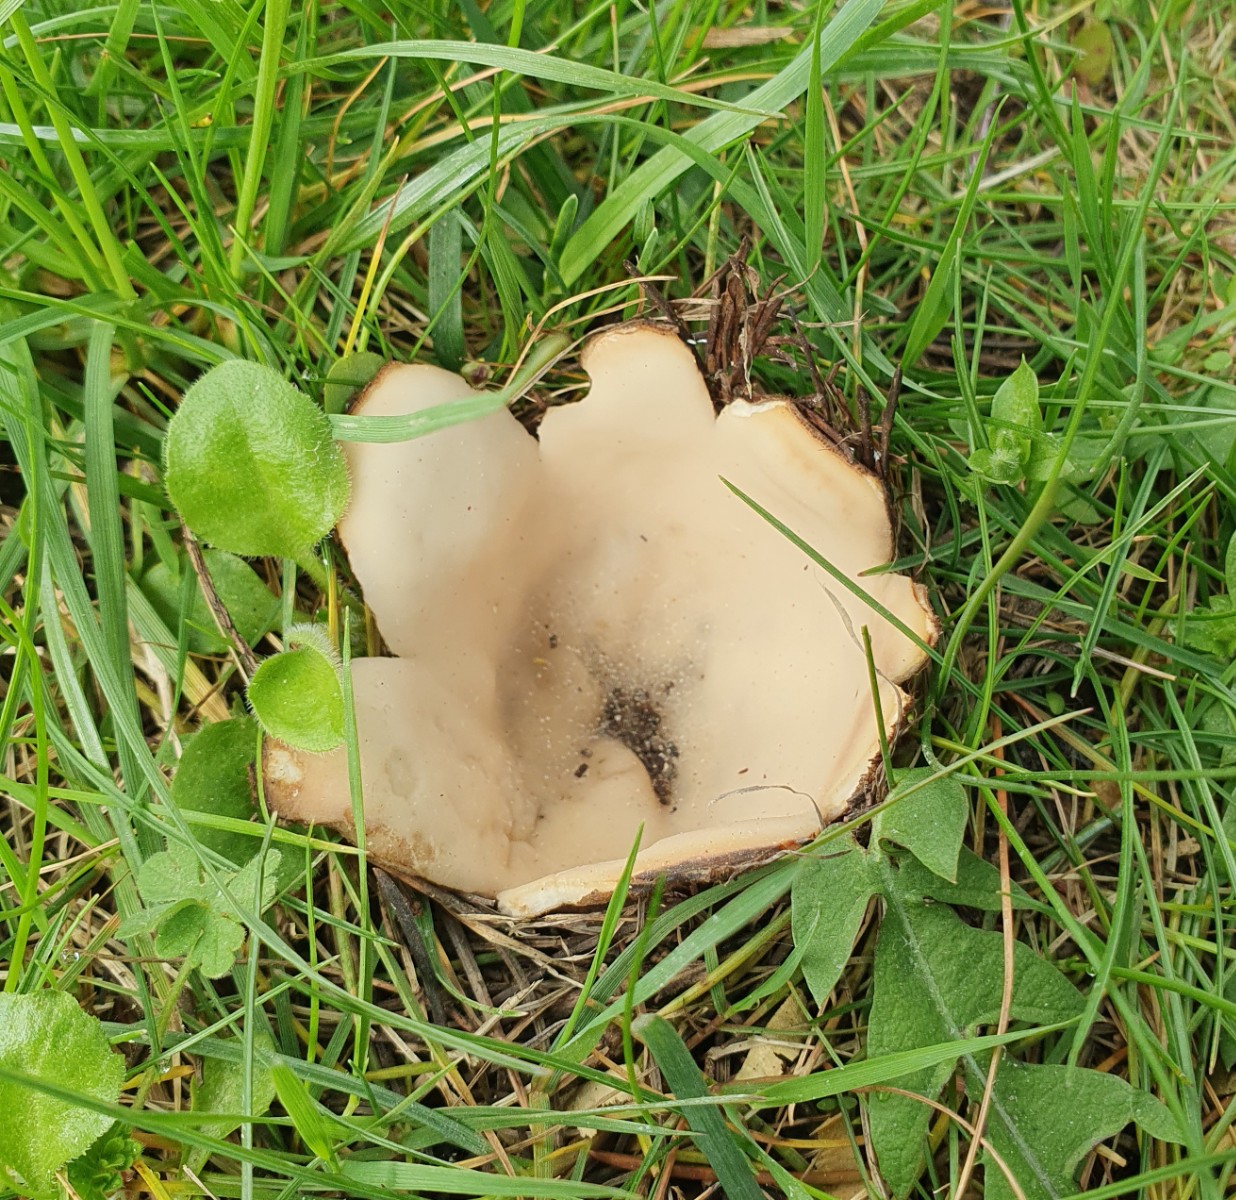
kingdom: Fungi
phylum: Ascomycota
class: Pezizomycetes
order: Pezizales
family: Pyronemataceae
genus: Geopora
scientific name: Geopora sumneriana
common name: vår-jordbæger
